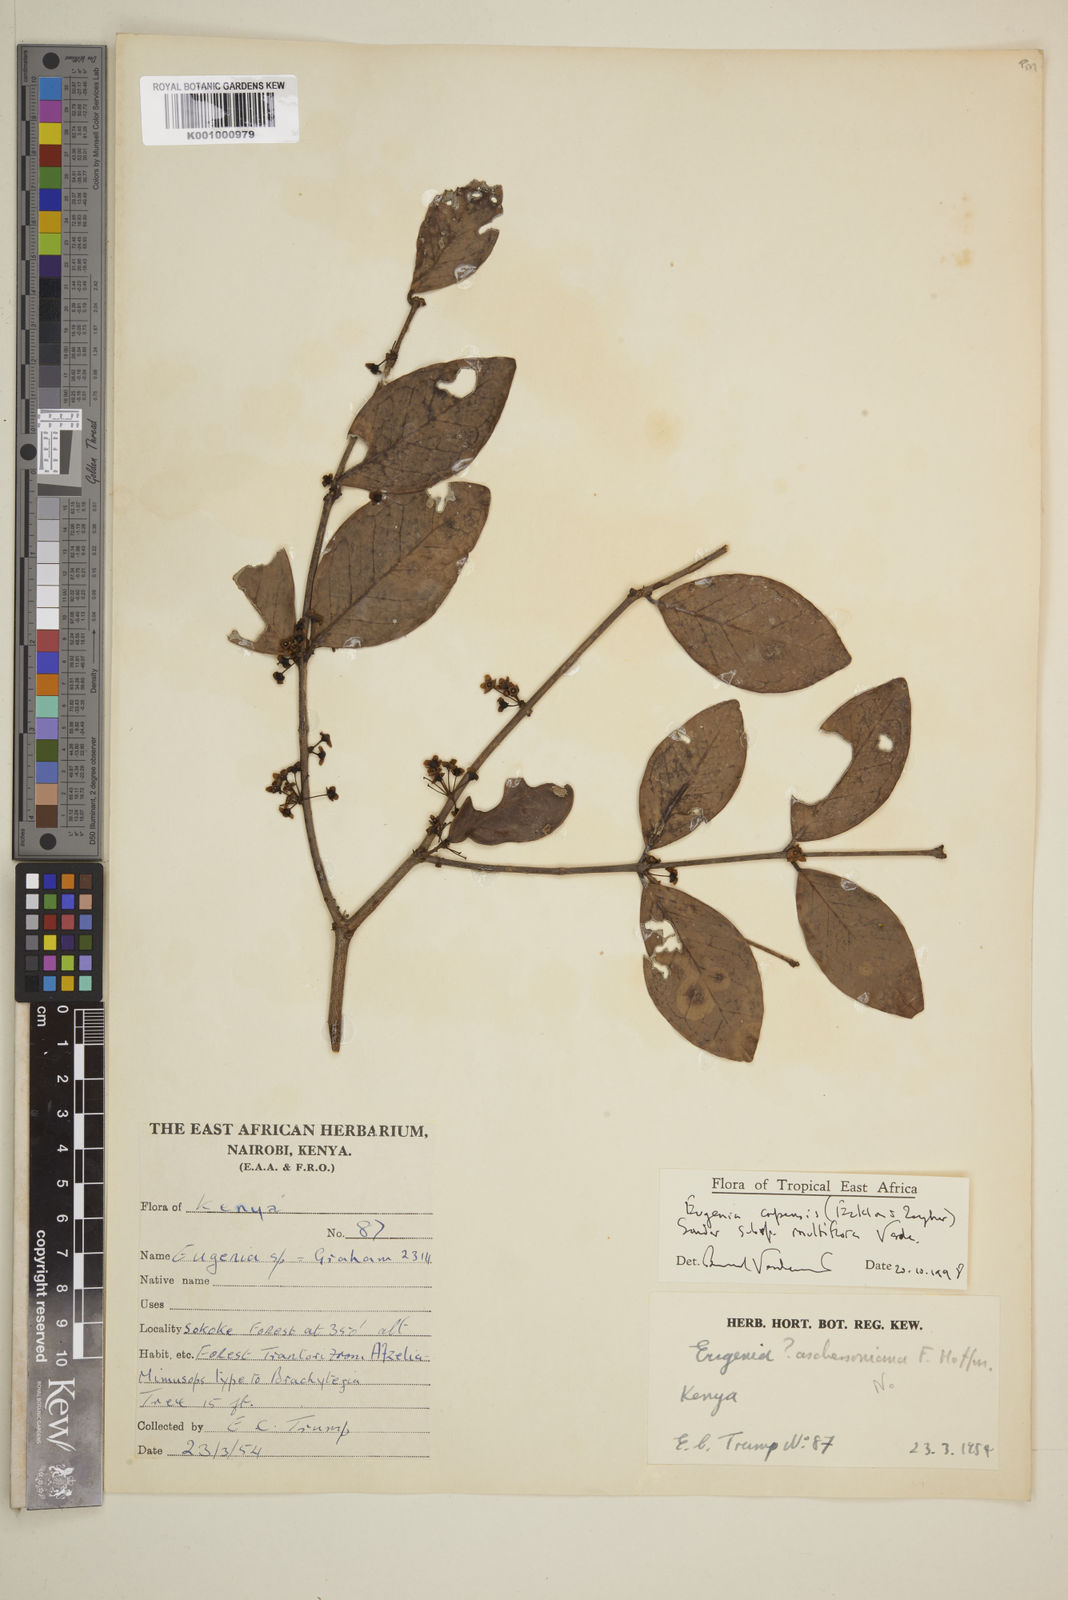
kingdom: Plantae
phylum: Tracheophyta
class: Magnoliopsida
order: Myrtales
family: Myrtaceae
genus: Eugenia
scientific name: Eugenia capensis
